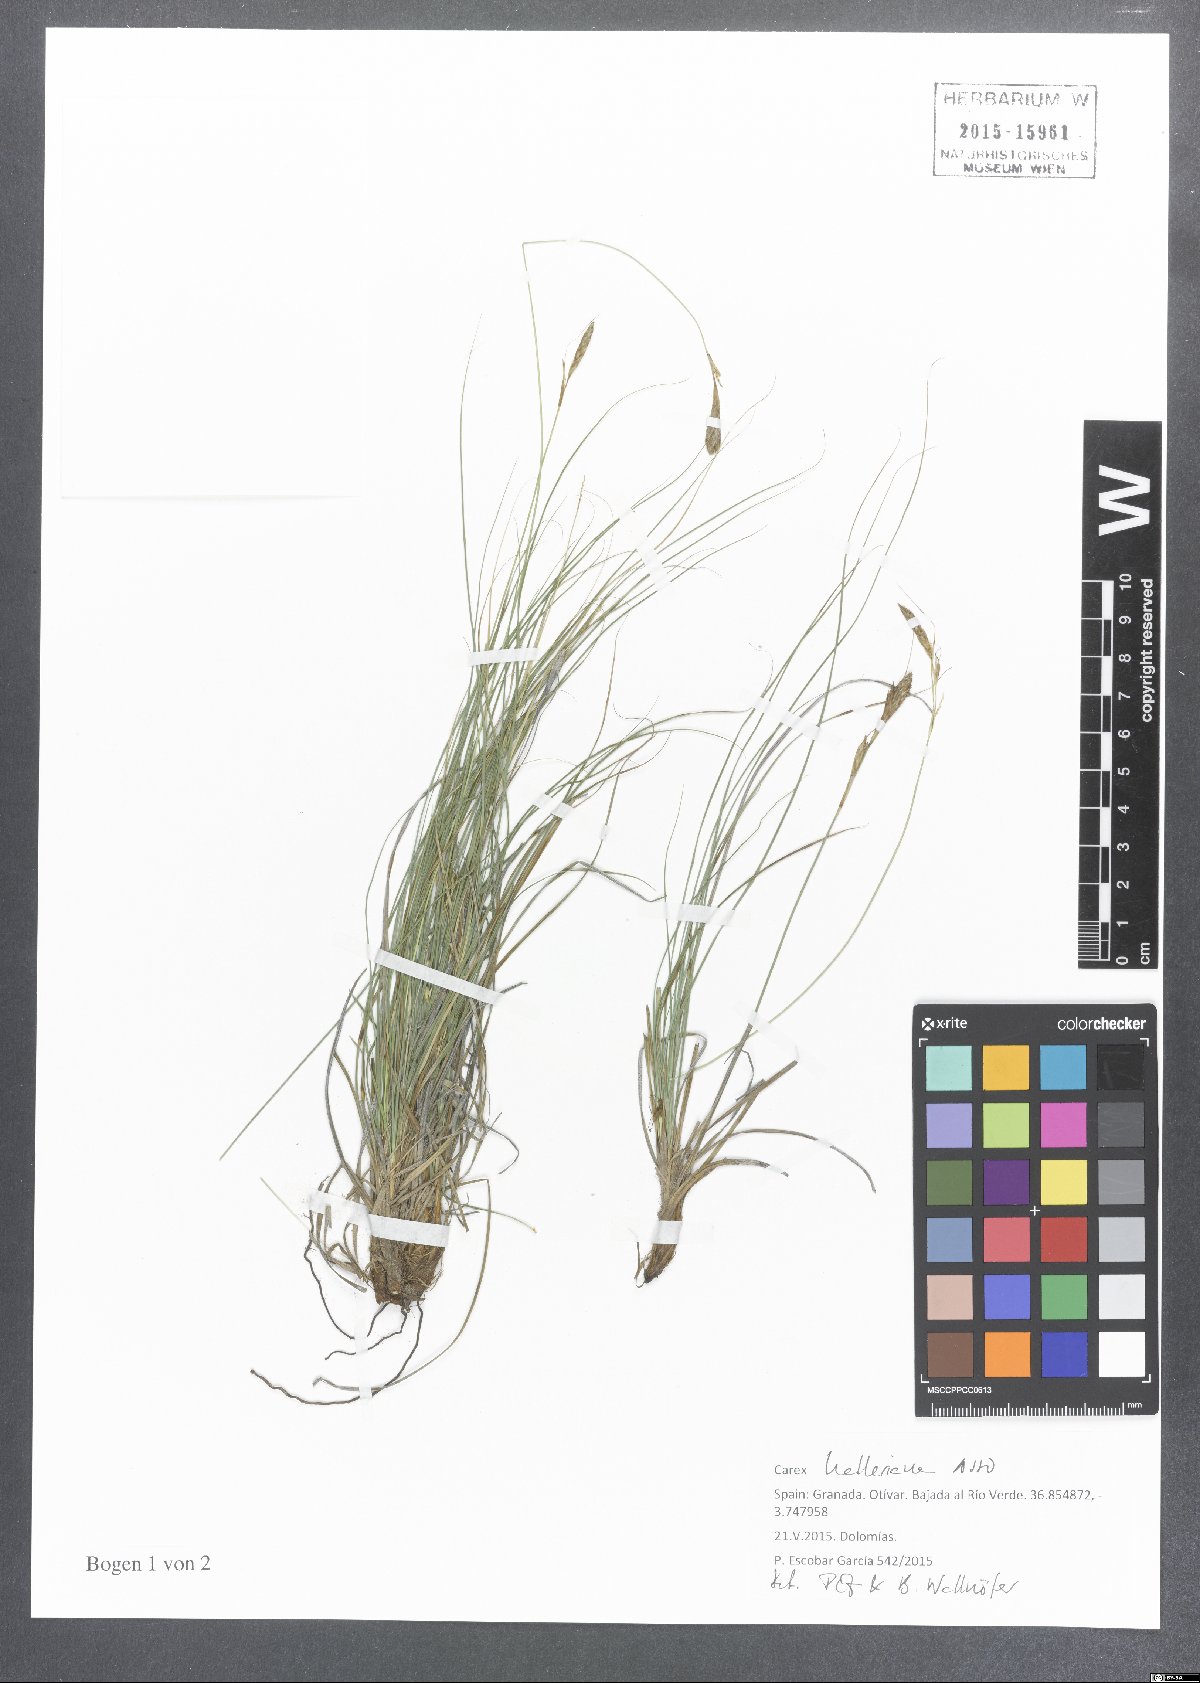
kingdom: Plantae
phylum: Tracheophyta
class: Liliopsida
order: Poales
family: Cyperaceae
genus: Carex
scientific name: Carex halleriana
